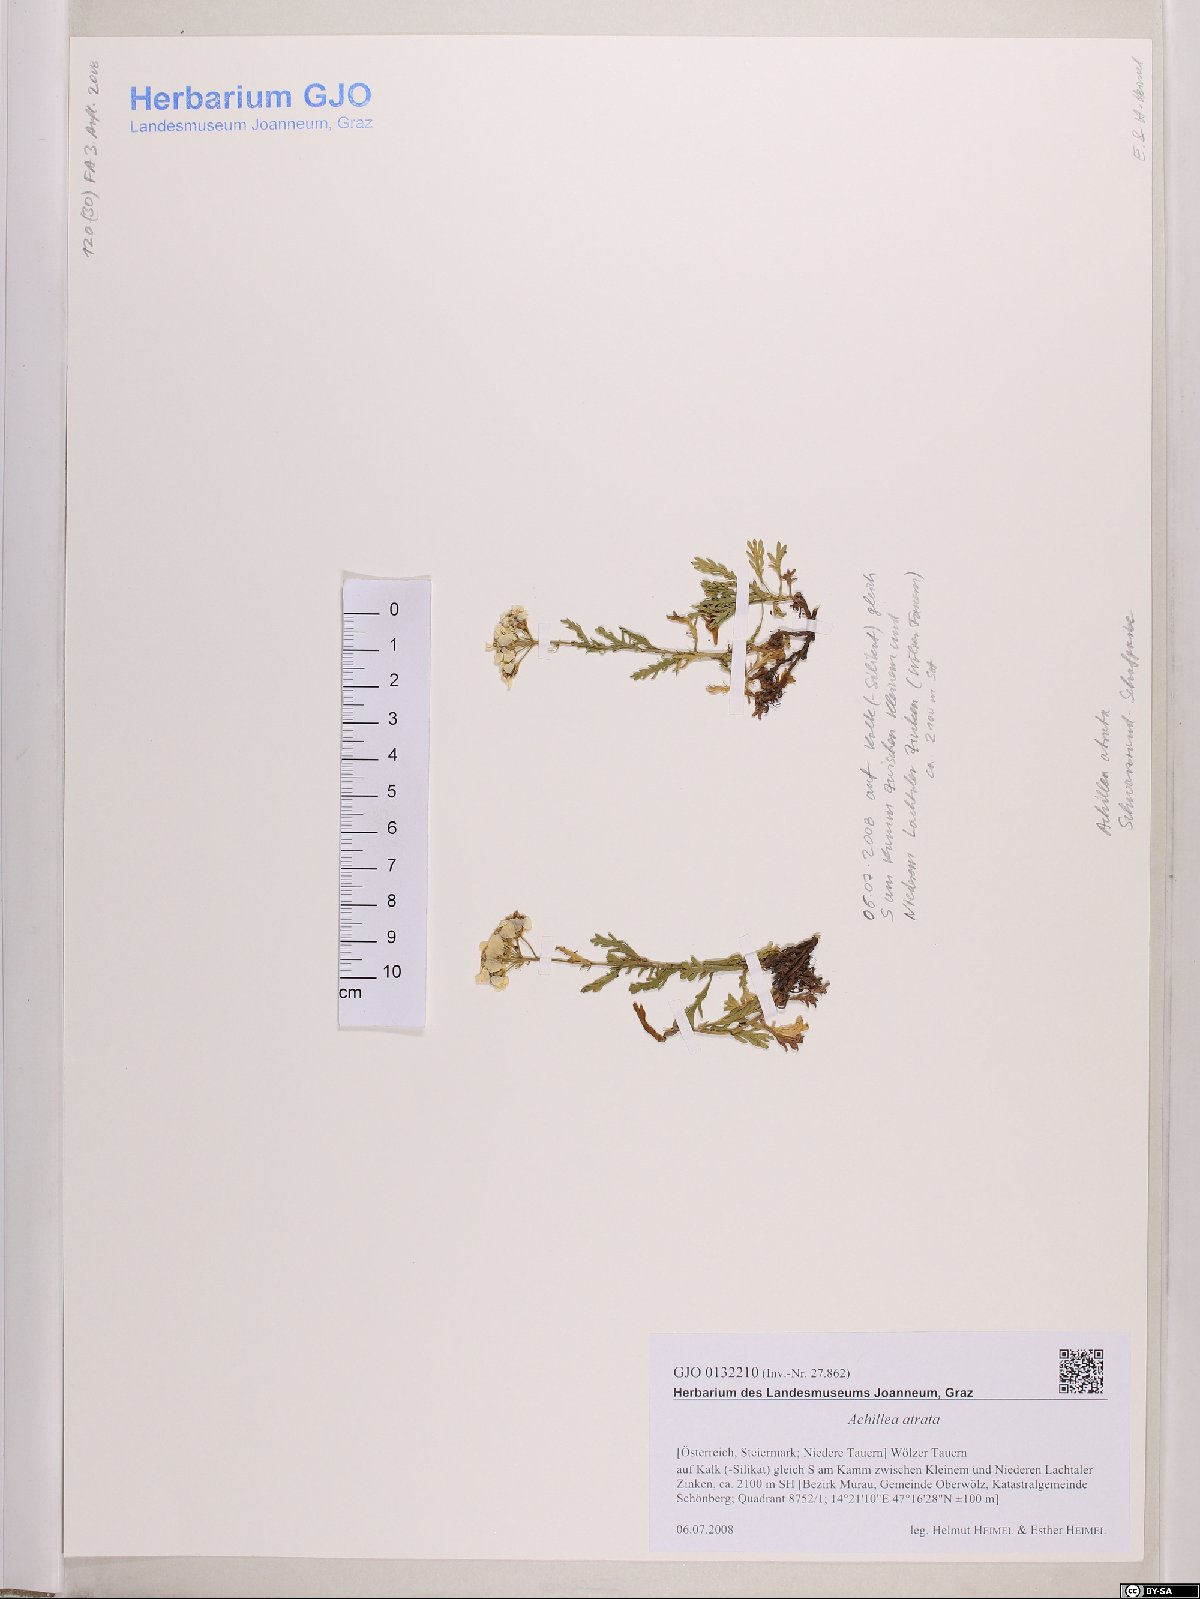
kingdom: Plantae
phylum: Tracheophyta
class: Magnoliopsida
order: Asterales
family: Asteraceae
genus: Achillea
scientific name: Achillea atrata
